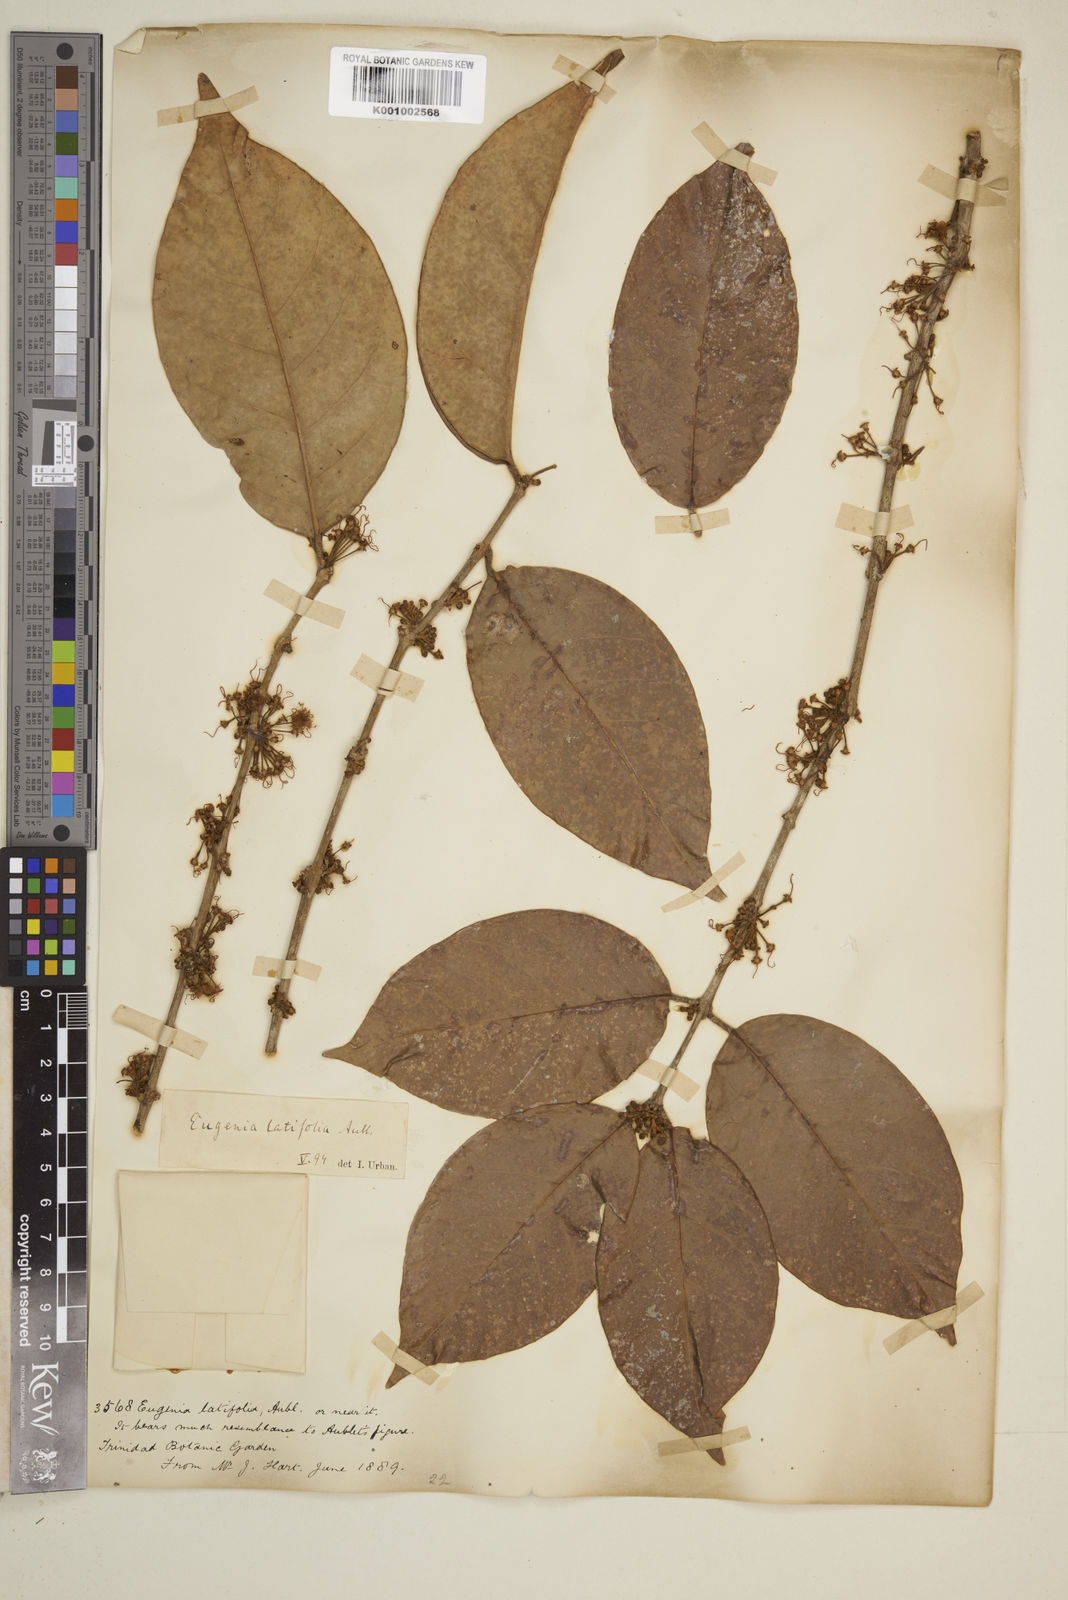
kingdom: Plantae
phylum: Tracheophyta
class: Magnoliopsida
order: Myrtales
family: Myrtaceae
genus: Eugenia
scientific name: Eugenia latifolia
